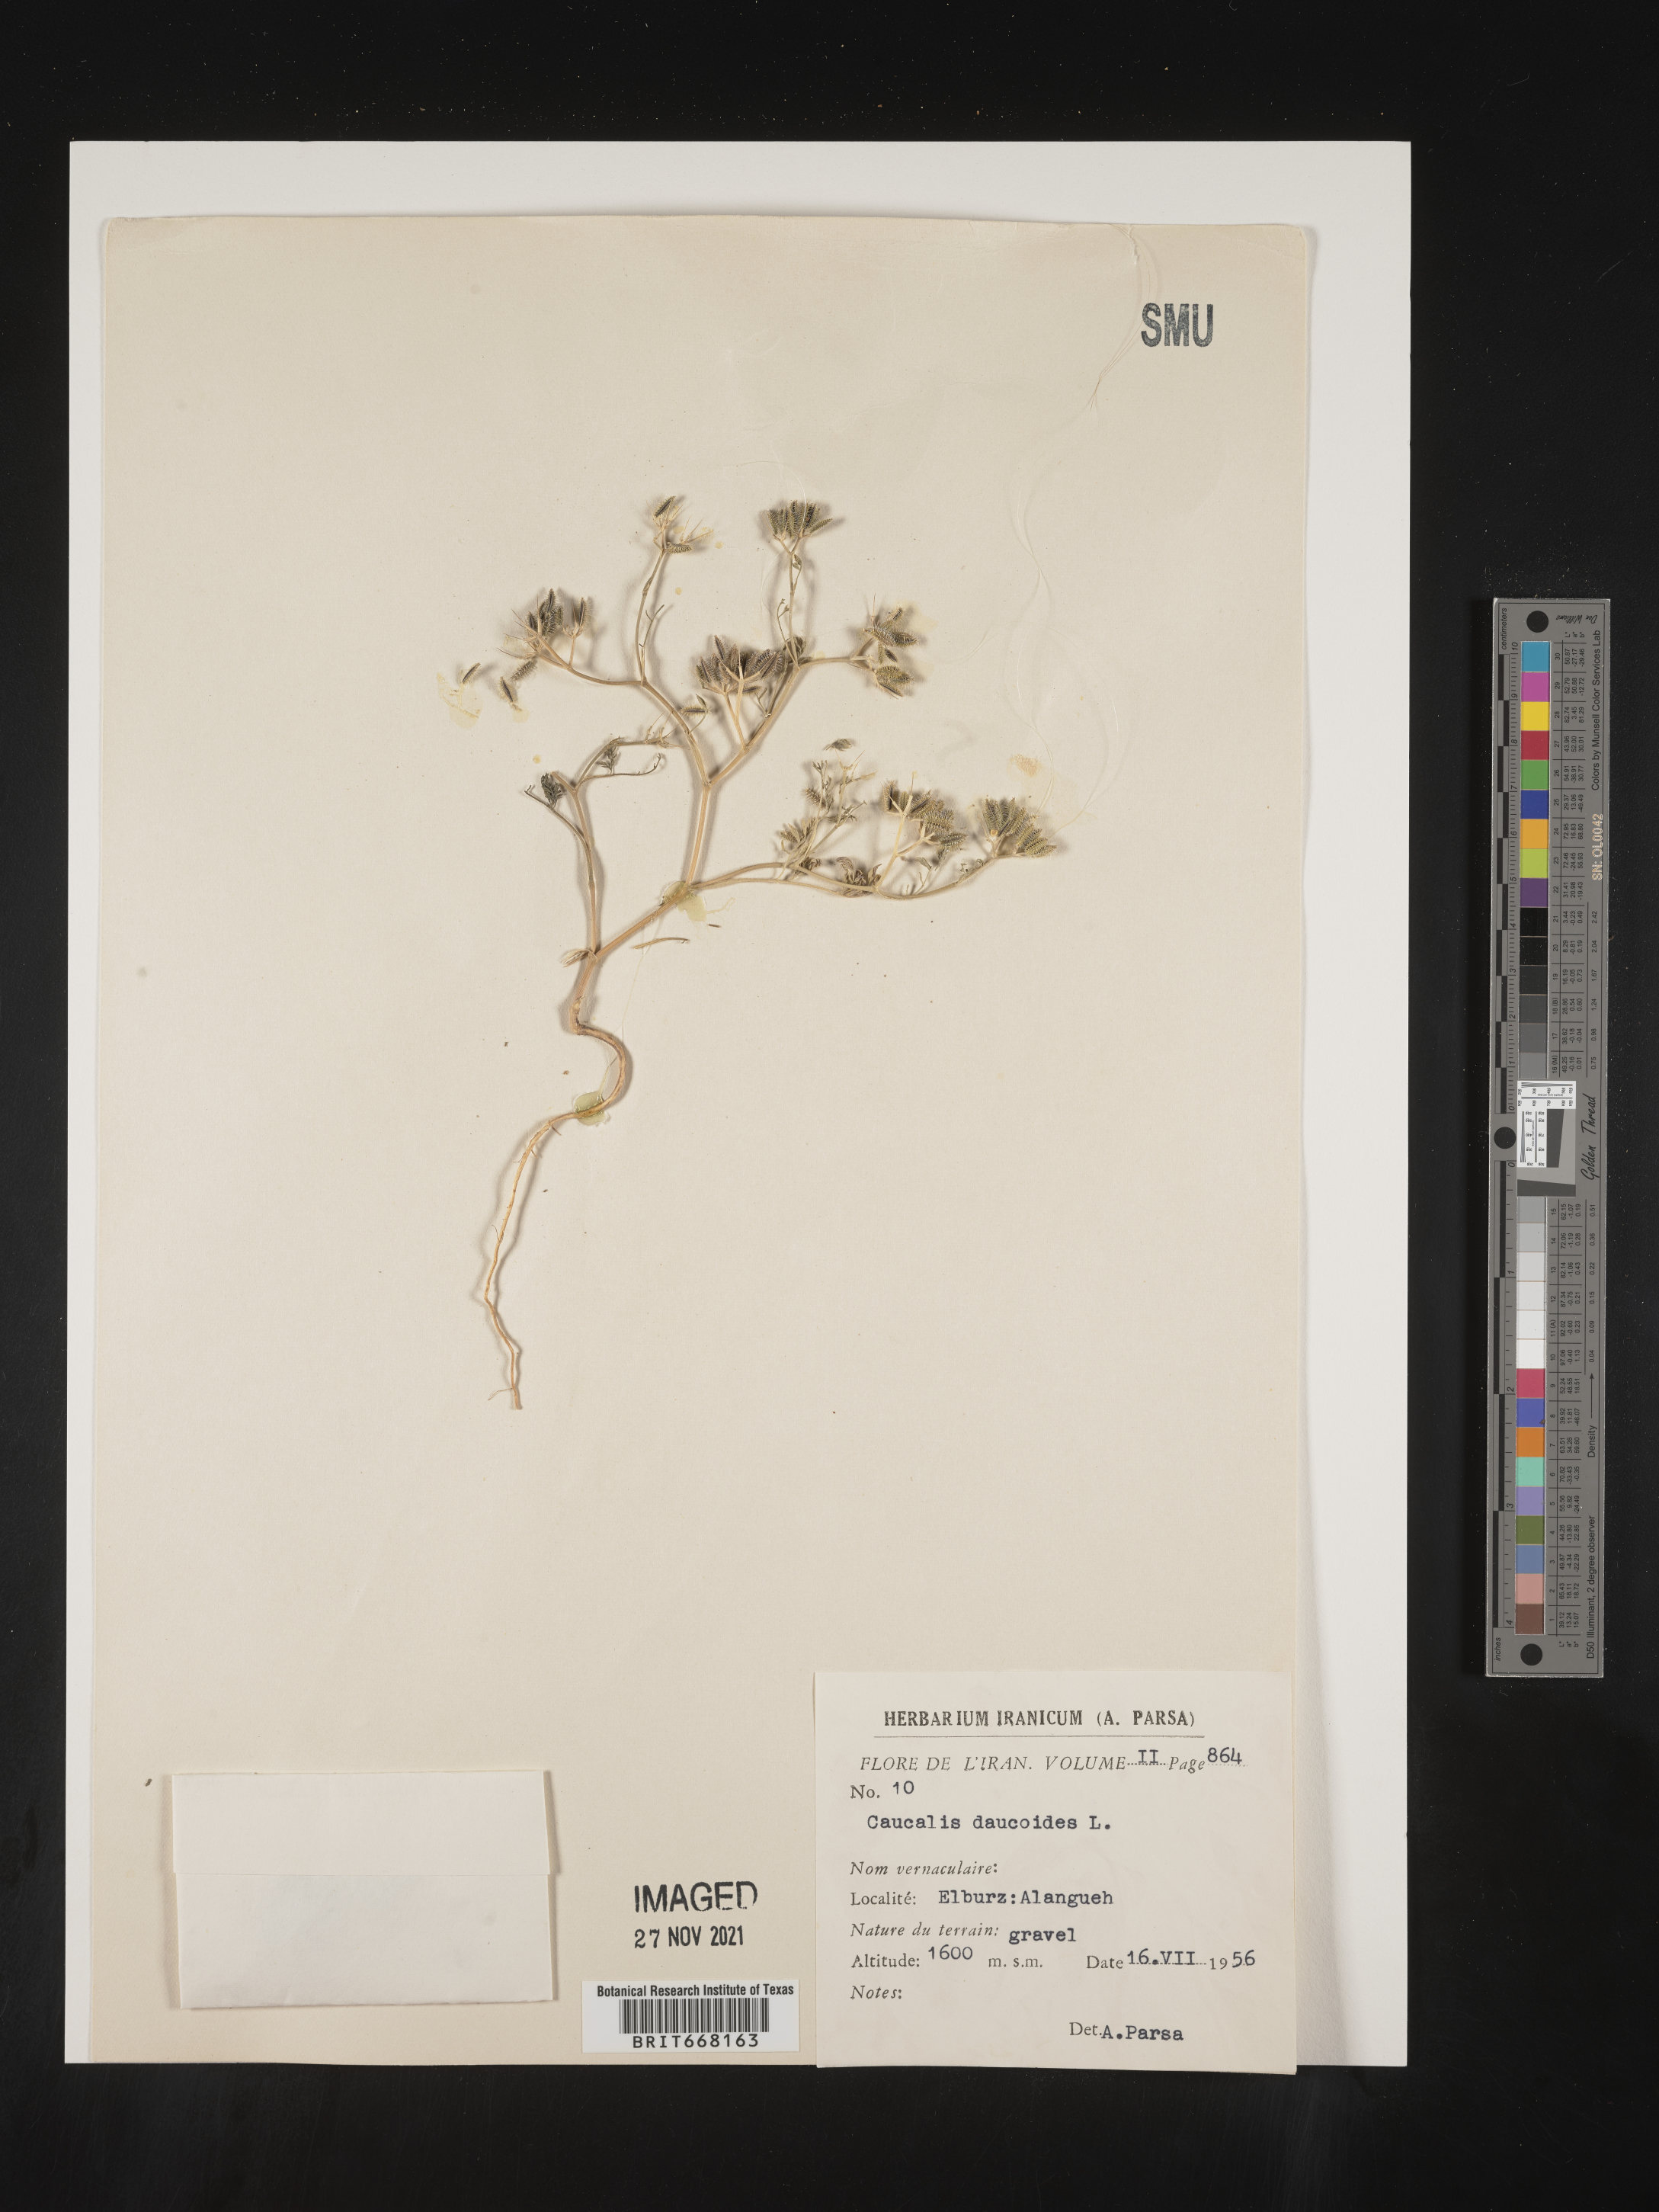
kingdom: Plantae
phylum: Tracheophyta
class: Magnoliopsida
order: Apiales
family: Apiaceae
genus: Caucalis
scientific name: Caucalis
